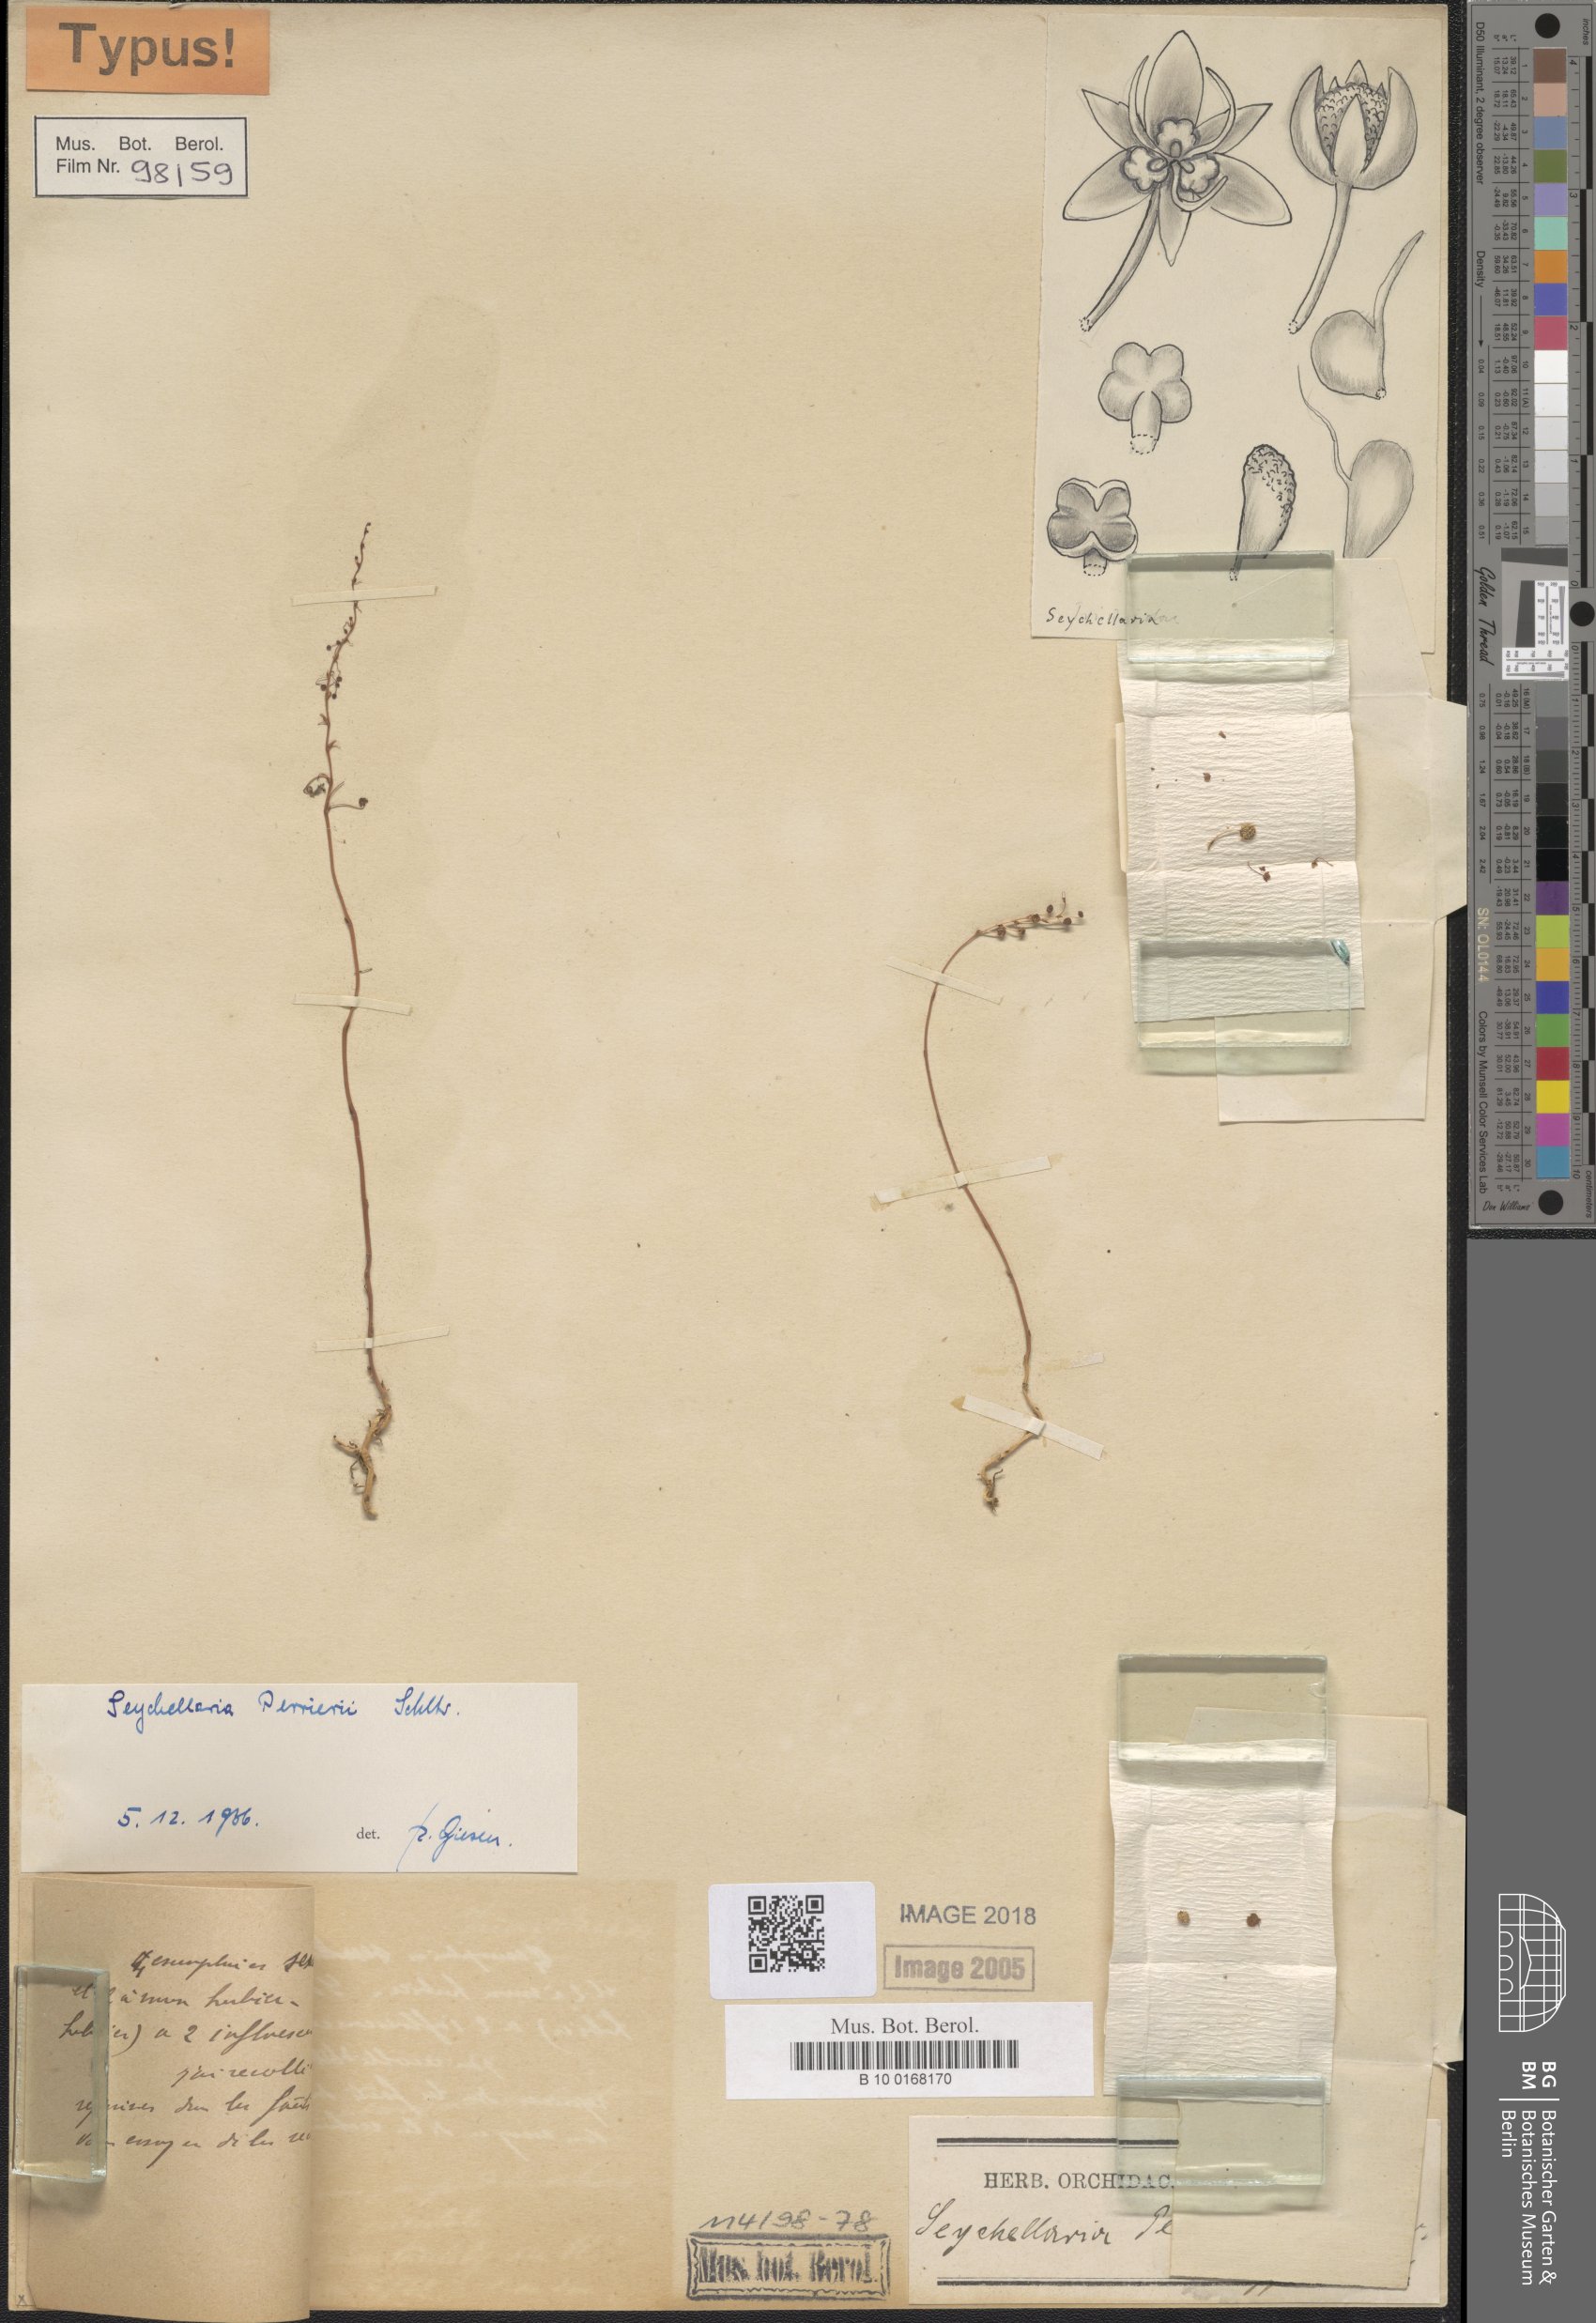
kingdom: Plantae
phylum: Tracheophyta
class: Liliopsida
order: Pandanales
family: Triuridaceae
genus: Sciaphila
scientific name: Sciaphila perrieri
